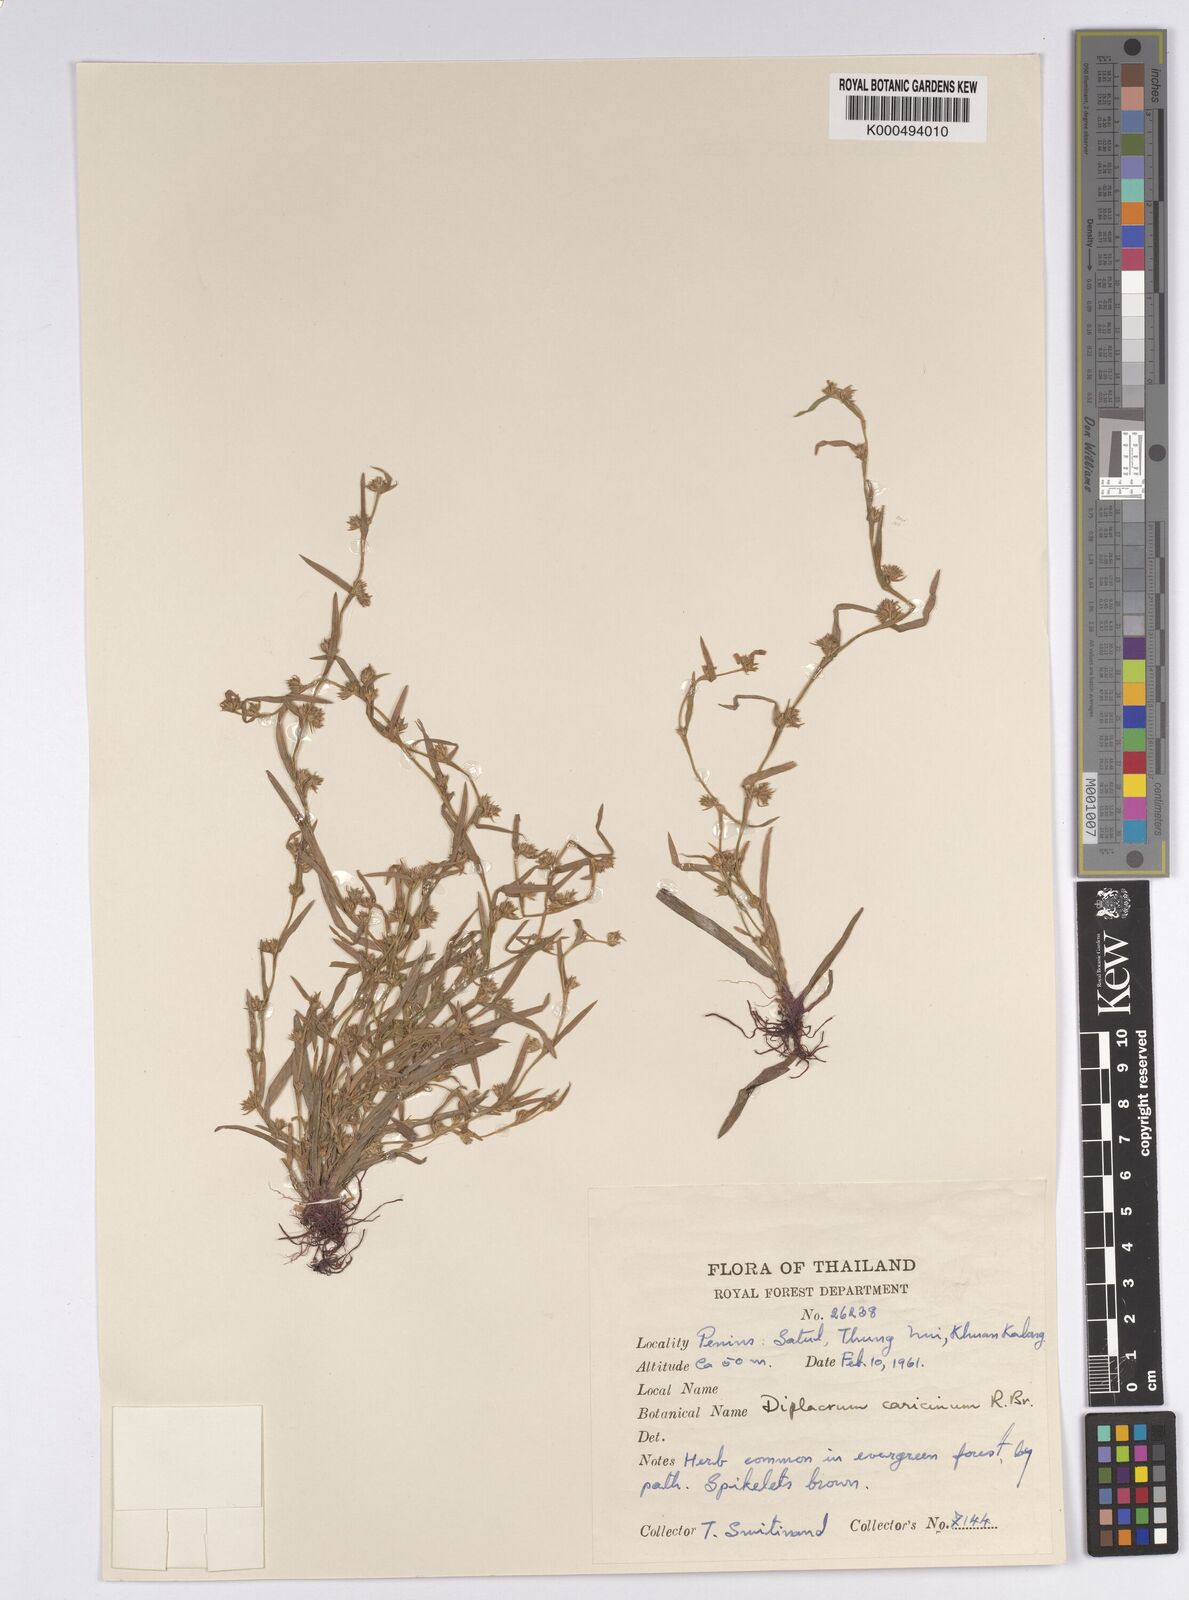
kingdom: Plantae
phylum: Tracheophyta
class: Liliopsida
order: Poales
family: Cyperaceae
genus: Diplacrum
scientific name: Diplacrum caricinum
